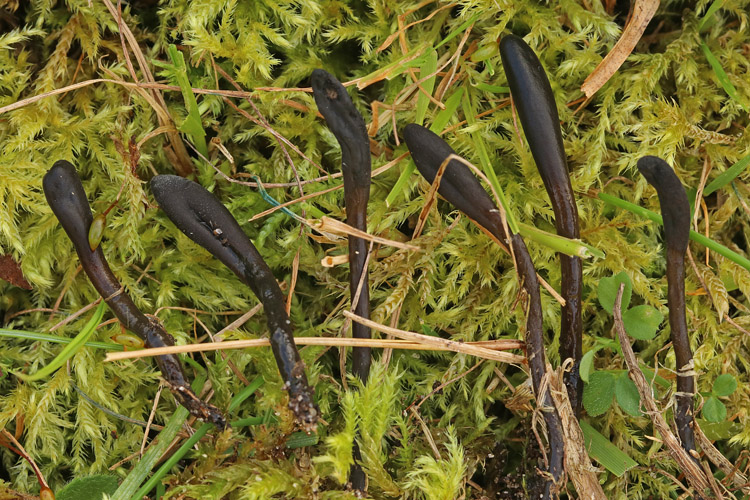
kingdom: Fungi
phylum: Ascomycota
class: Geoglossomycetes
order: Geoglossales
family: Geoglossaceae
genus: Glutinoglossum
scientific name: Glutinoglossum glutinosum
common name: slimet jordtunge
